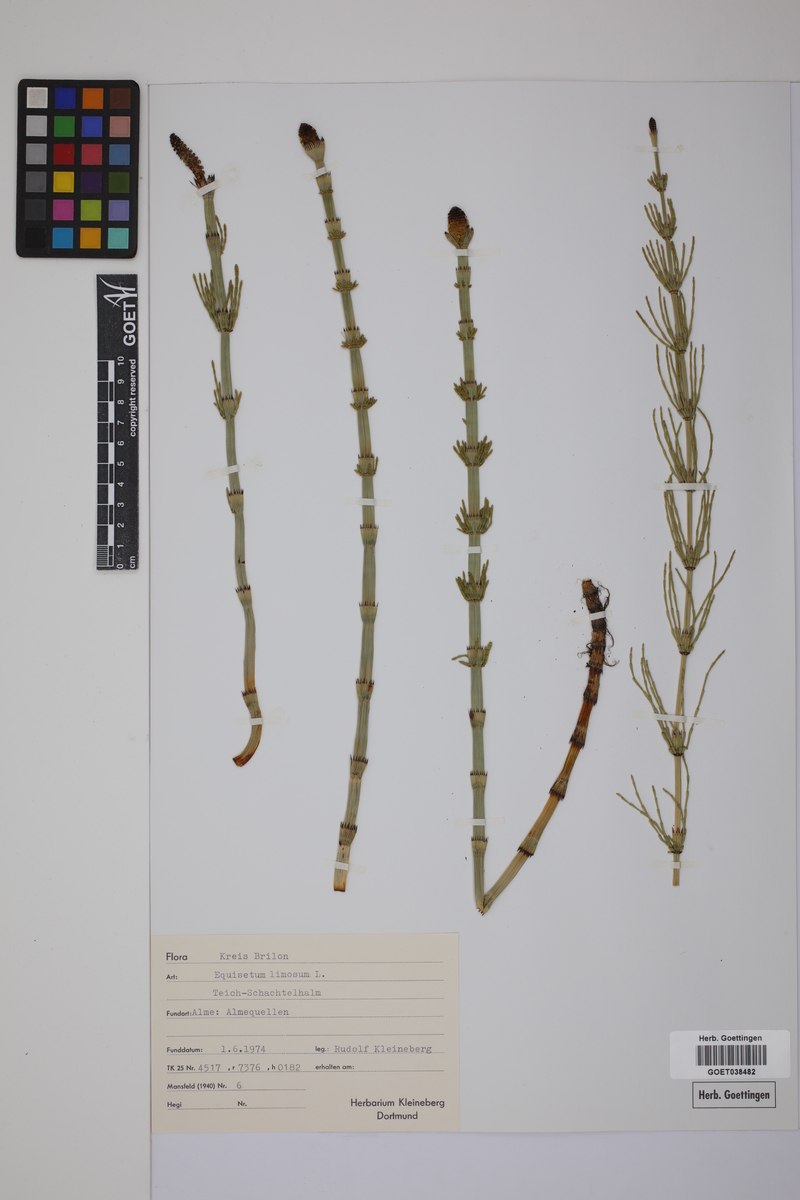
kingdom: Plantae
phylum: Tracheophyta
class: Polypodiopsida
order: Equisetales
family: Equisetaceae
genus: Equisetum
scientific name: Equisetum fluviatile
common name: Water horsetail
